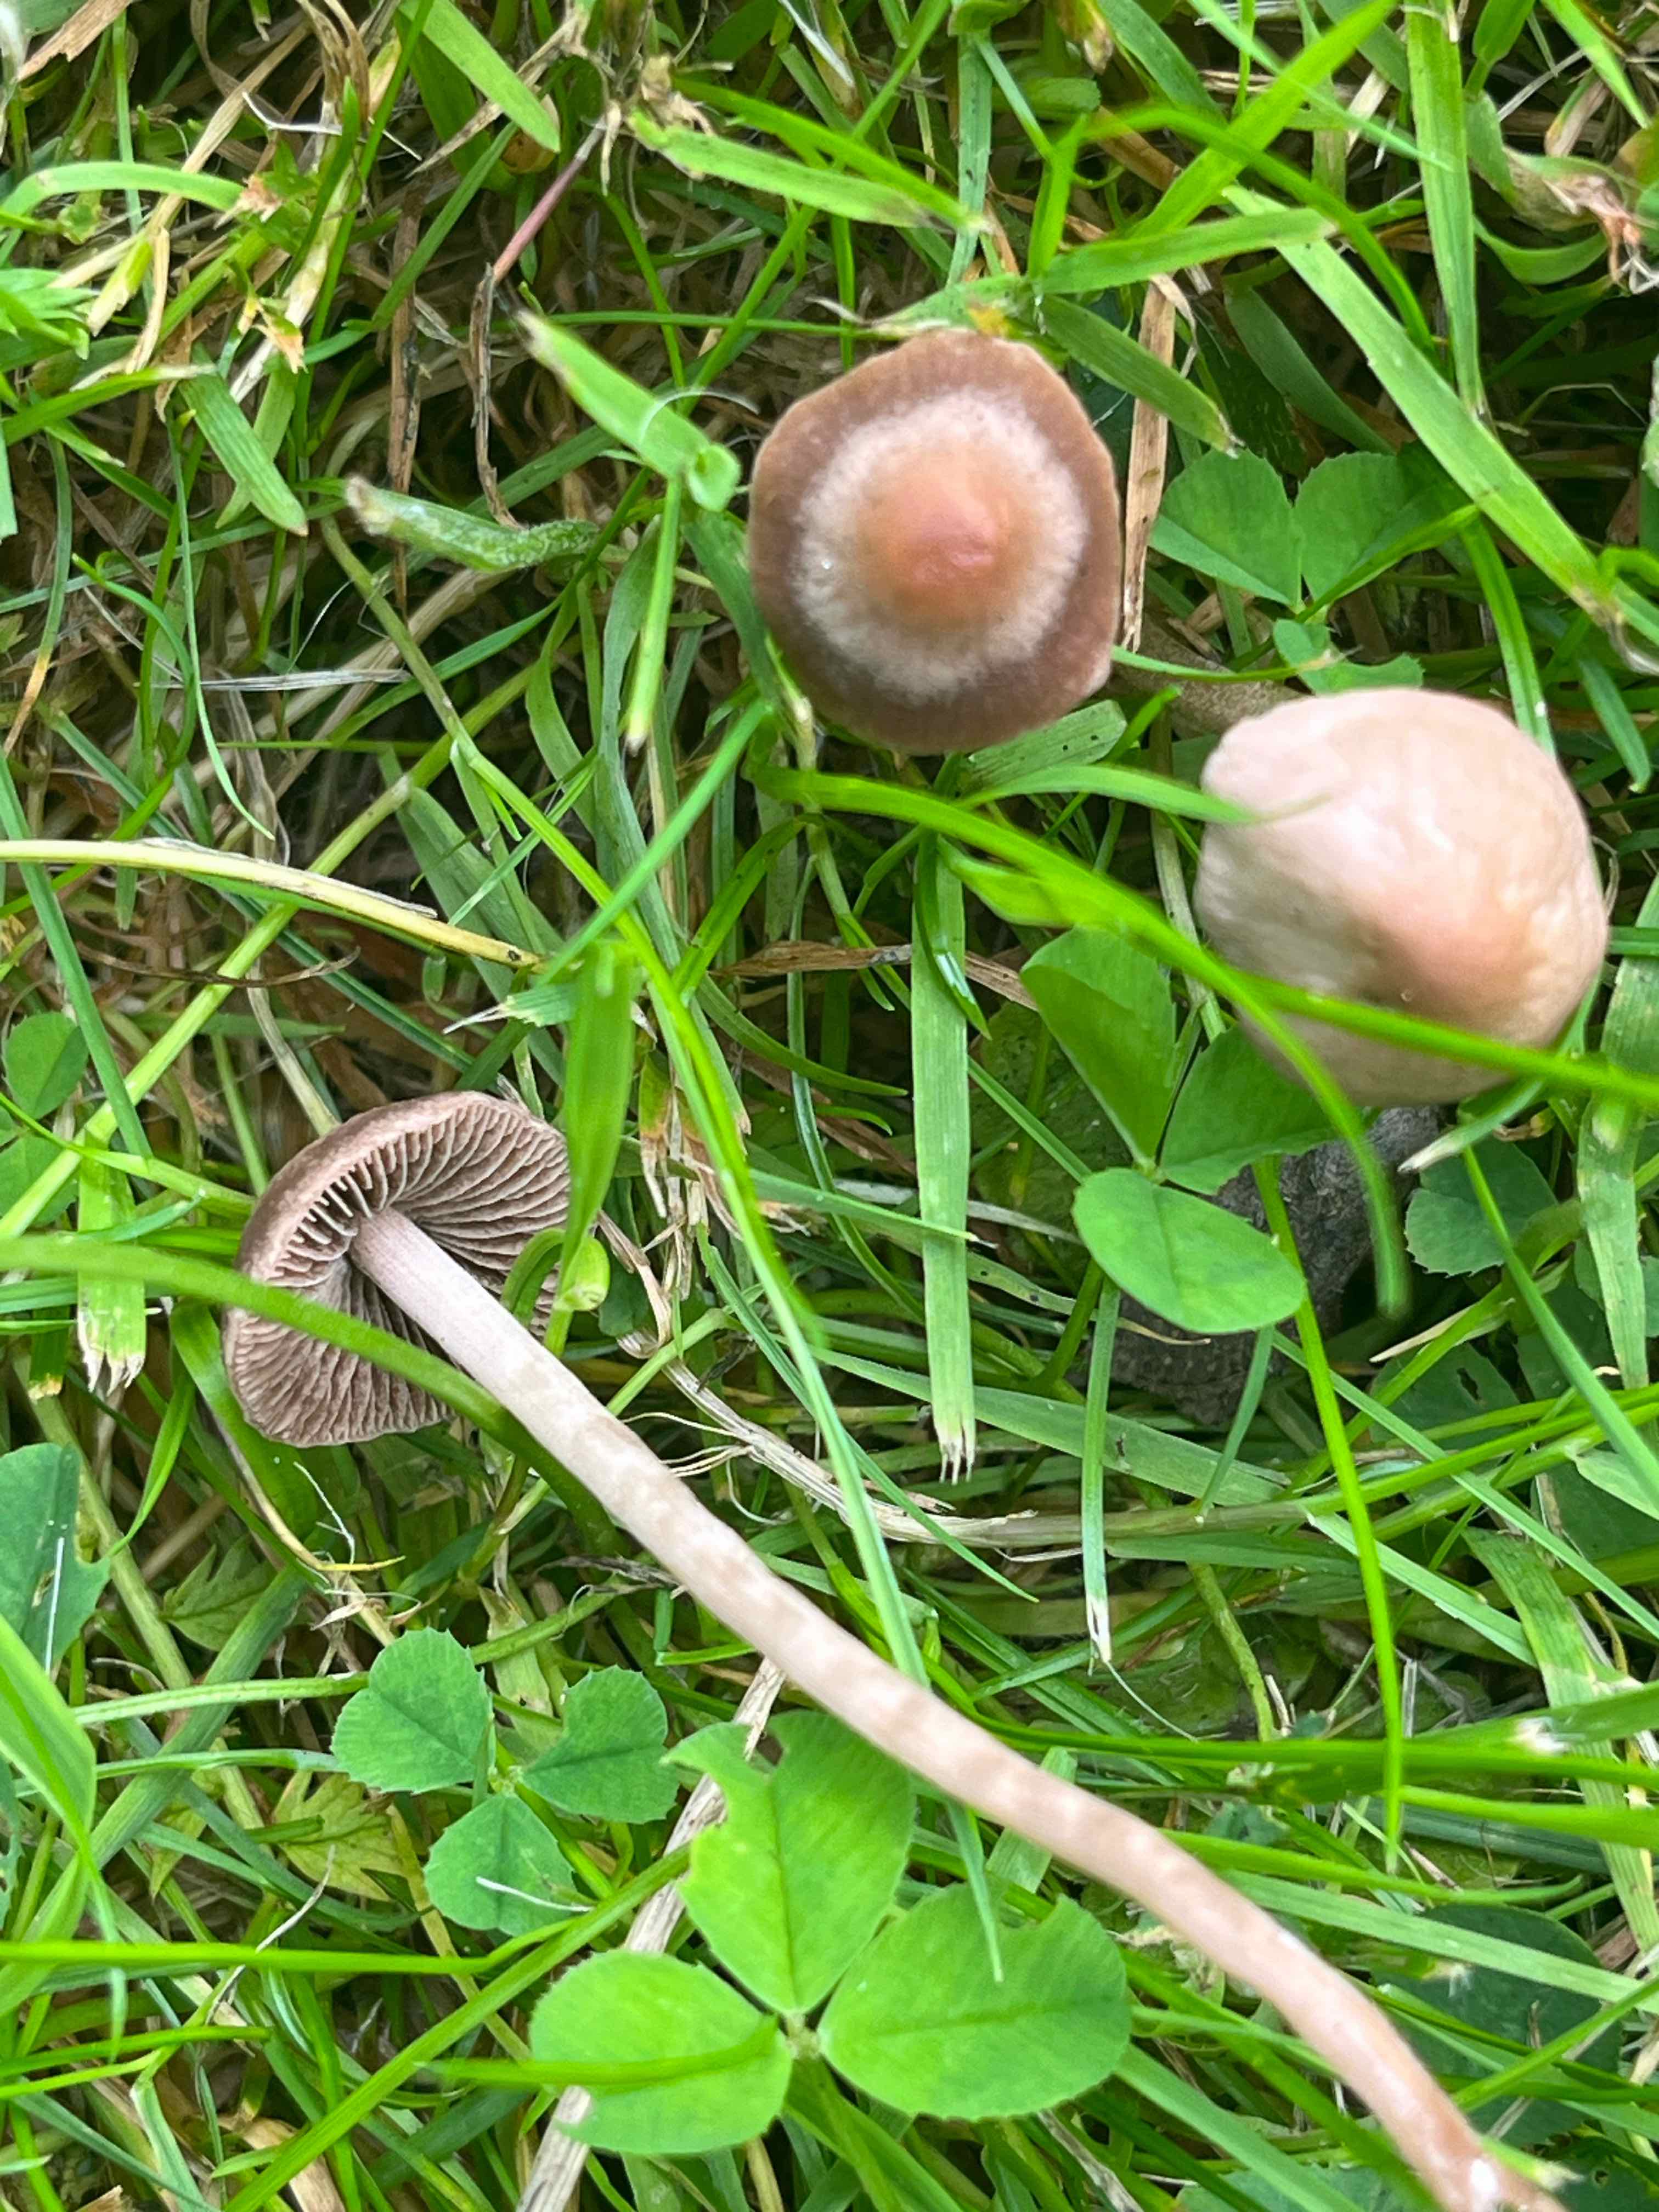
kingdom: Fungi
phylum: Basidiomycota
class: Agaricomycetes
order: Agaricales
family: Bolbitiaceae
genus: Panaeolina
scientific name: Panaeolina foenisecii
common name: høslætsvamp
